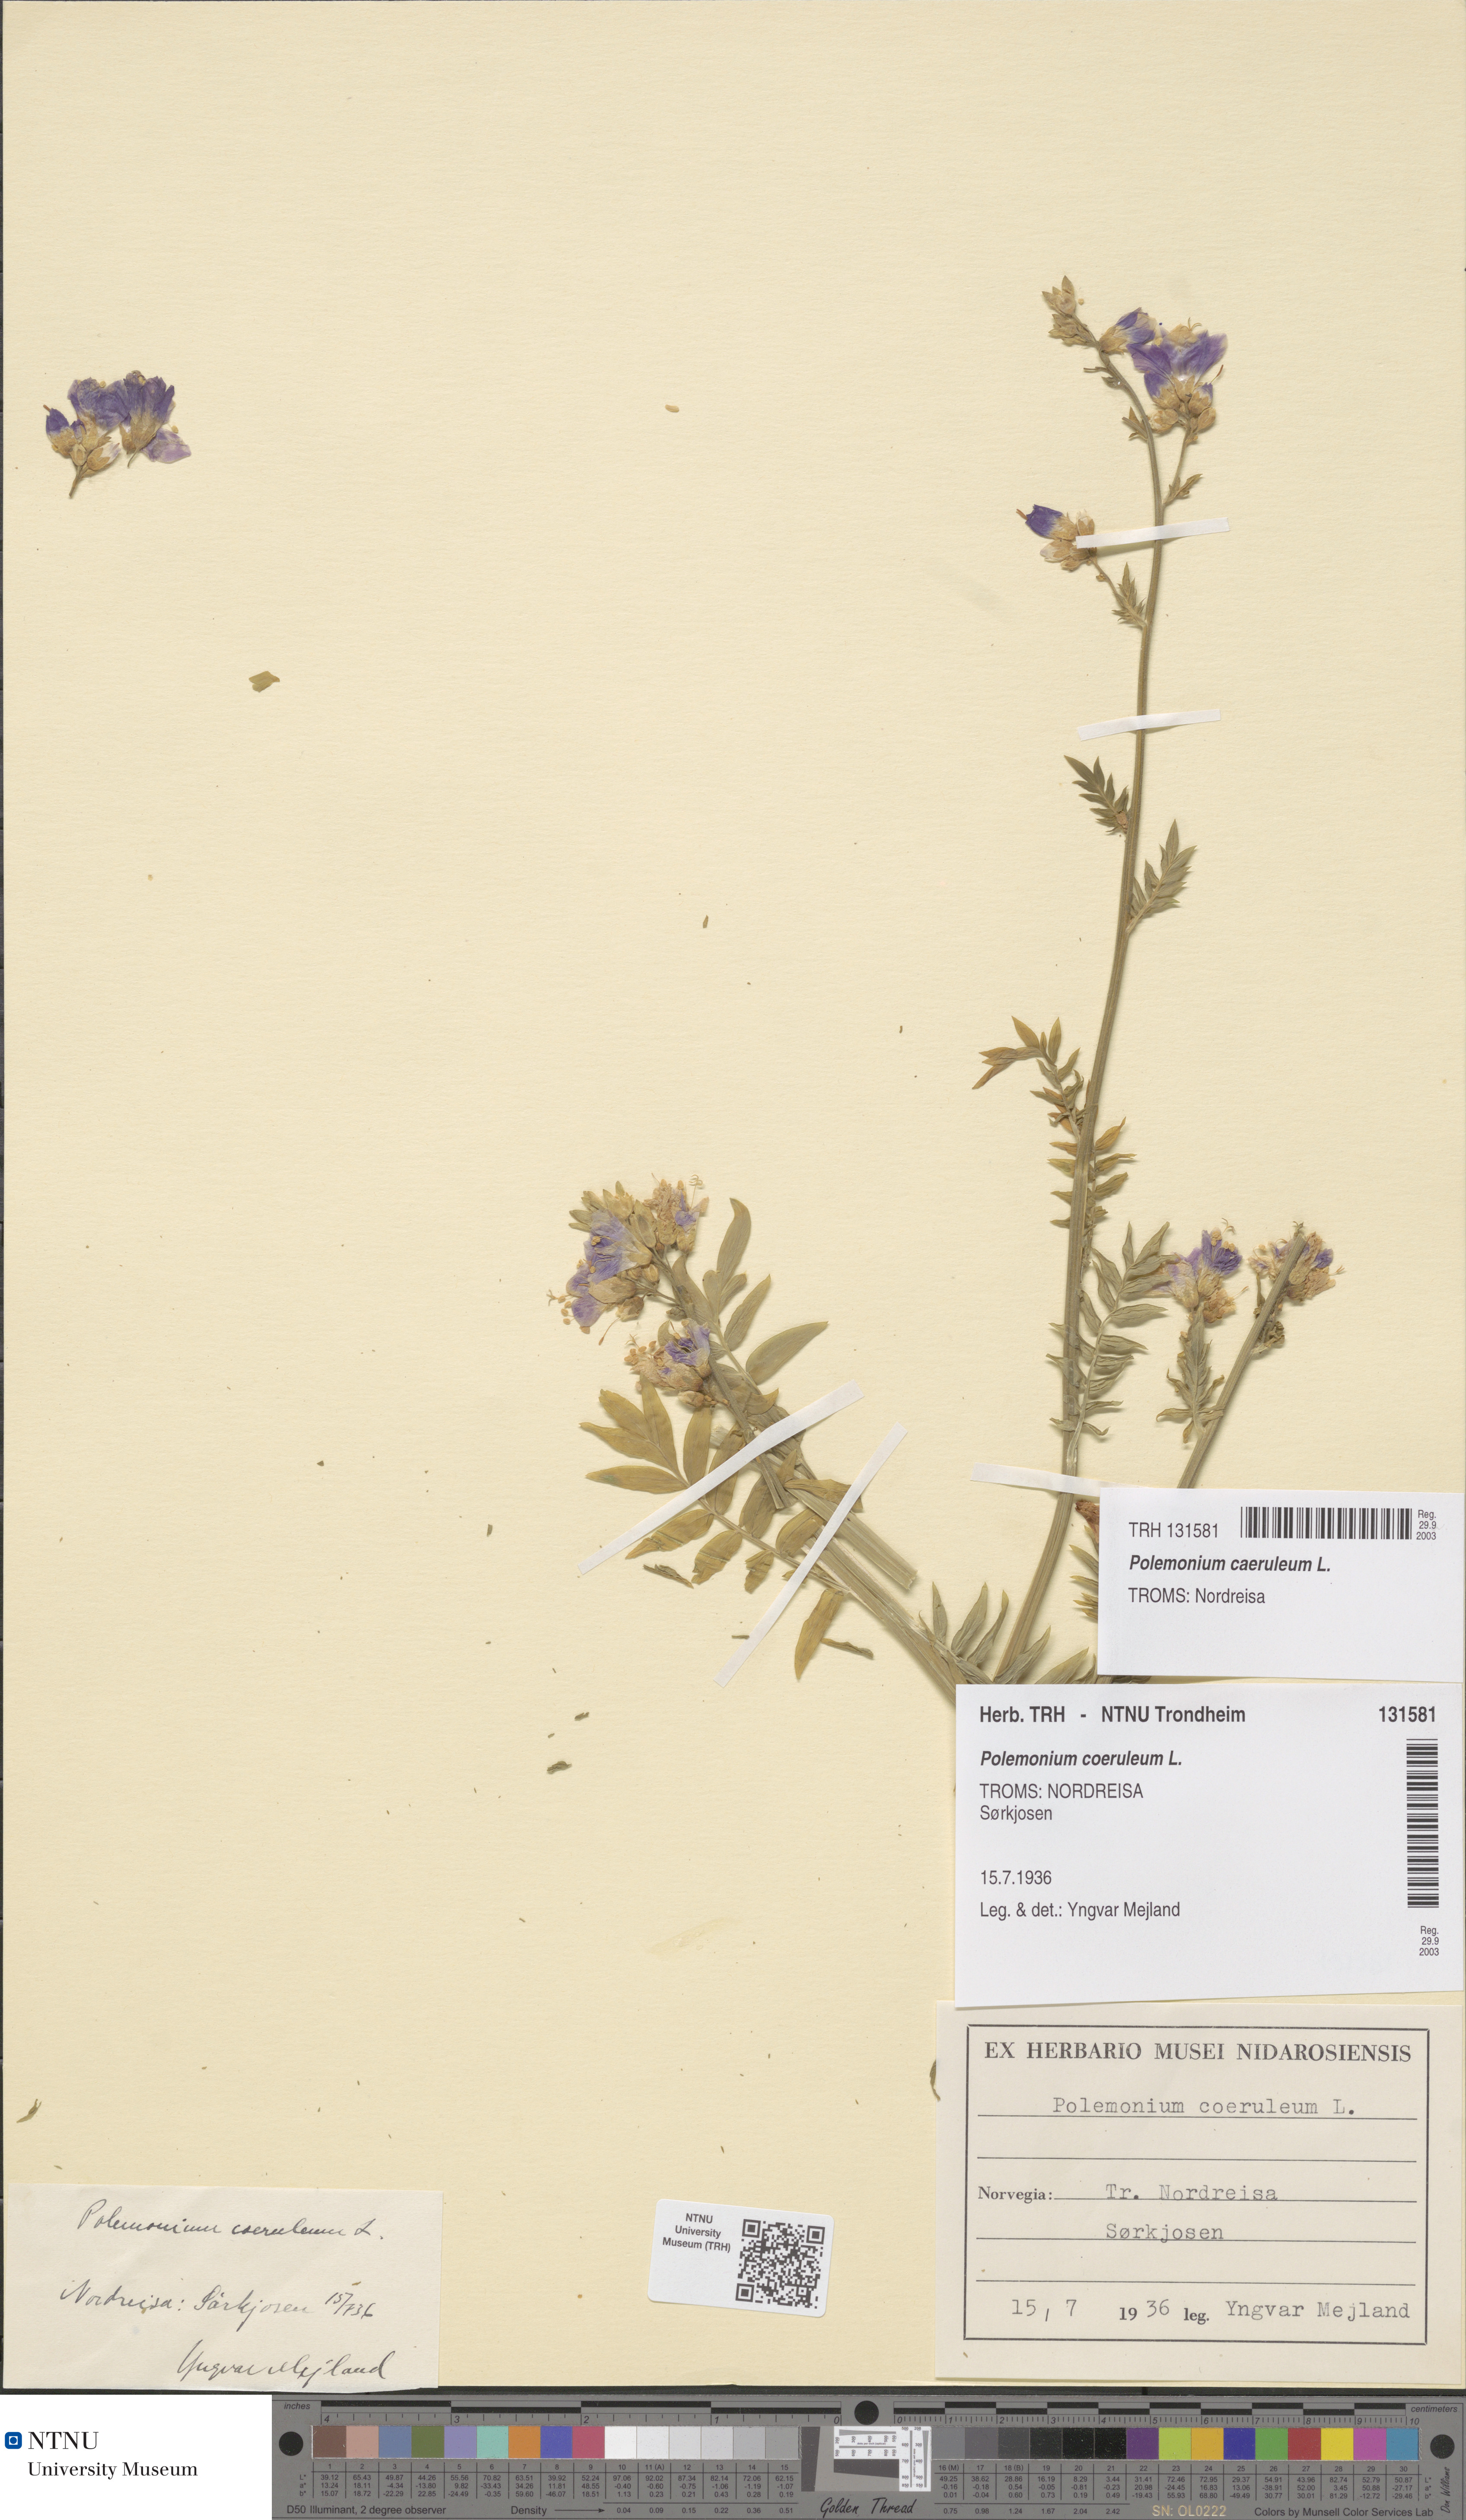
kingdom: Plantae
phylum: Tracheophyta
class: Magnoliopsida
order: Ericales
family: Polemoniaceae
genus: Polemonium
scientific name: Polemonium caeruleum
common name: Jacob's-ladder
